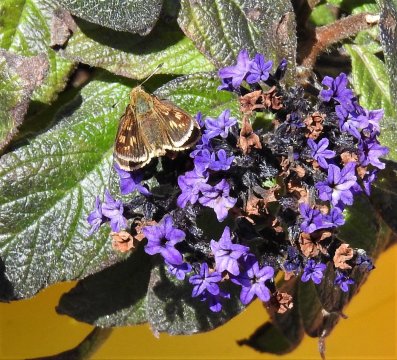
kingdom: Animalia
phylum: Arthropoda
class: Insecta
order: Lepidoptera
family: Hesperiidae
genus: Polites
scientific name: Polites coras
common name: Peck's Skipper
